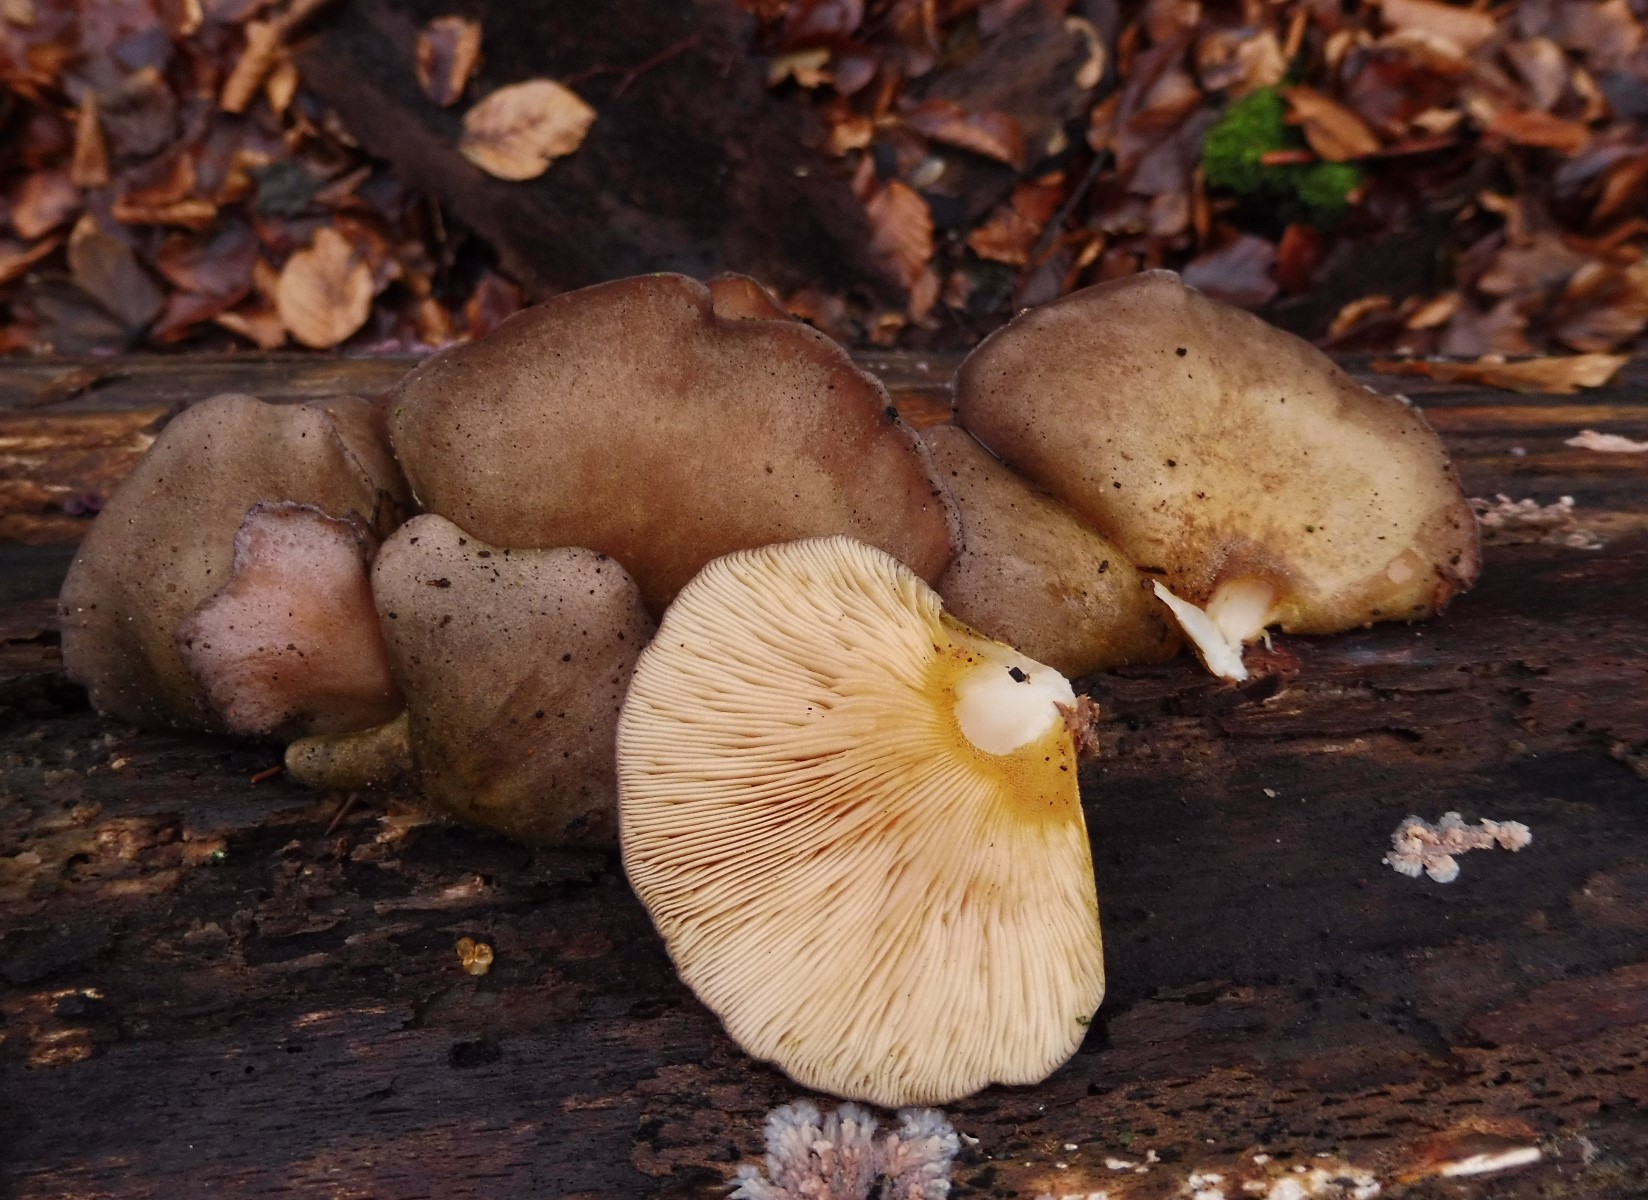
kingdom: Fungi
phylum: Basidiomycota
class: Agaricomycetes
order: Agaricales
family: Sarcomyxaceae
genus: Sarcomyxa
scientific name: Sarcomyxa serotina
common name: gummihat
